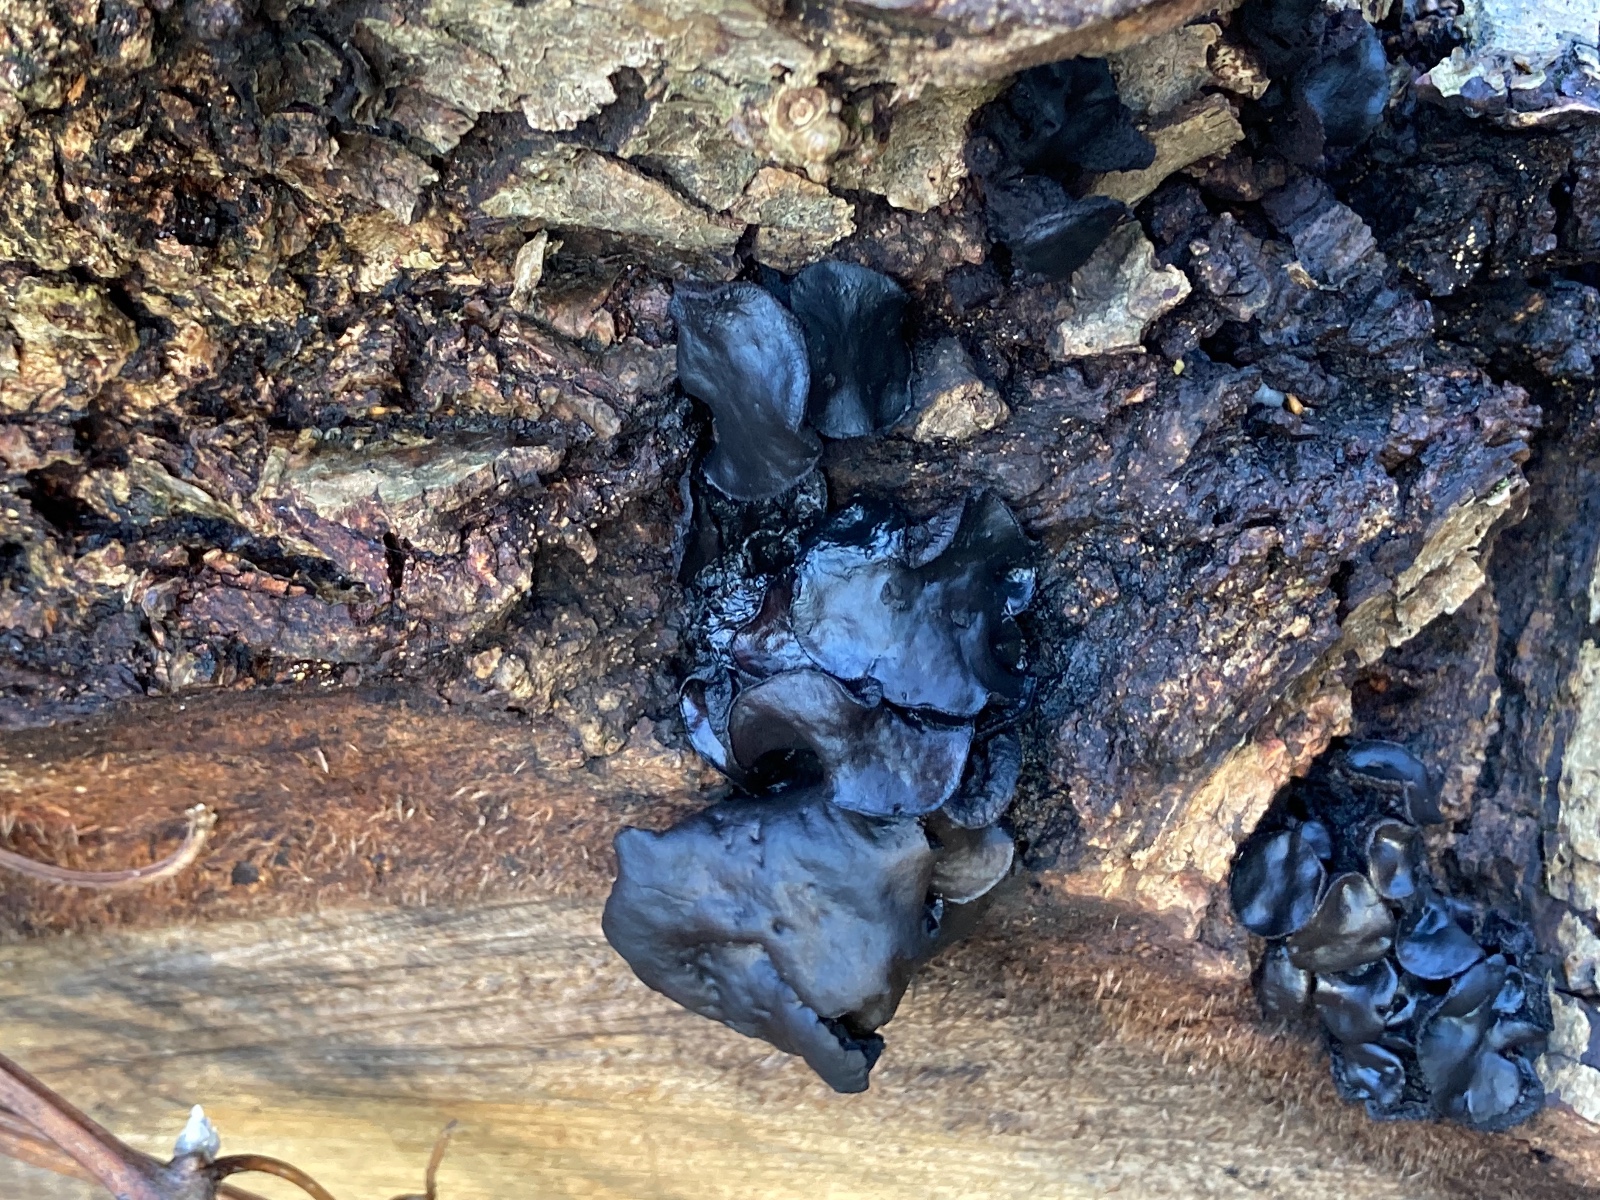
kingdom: Fungi
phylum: Ascomycota
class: Leotiomycetes
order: Phacidiales
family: Phacidiaceae
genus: Bulgaria
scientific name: Bulgaria inquinans
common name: afsmittende topsvamp
